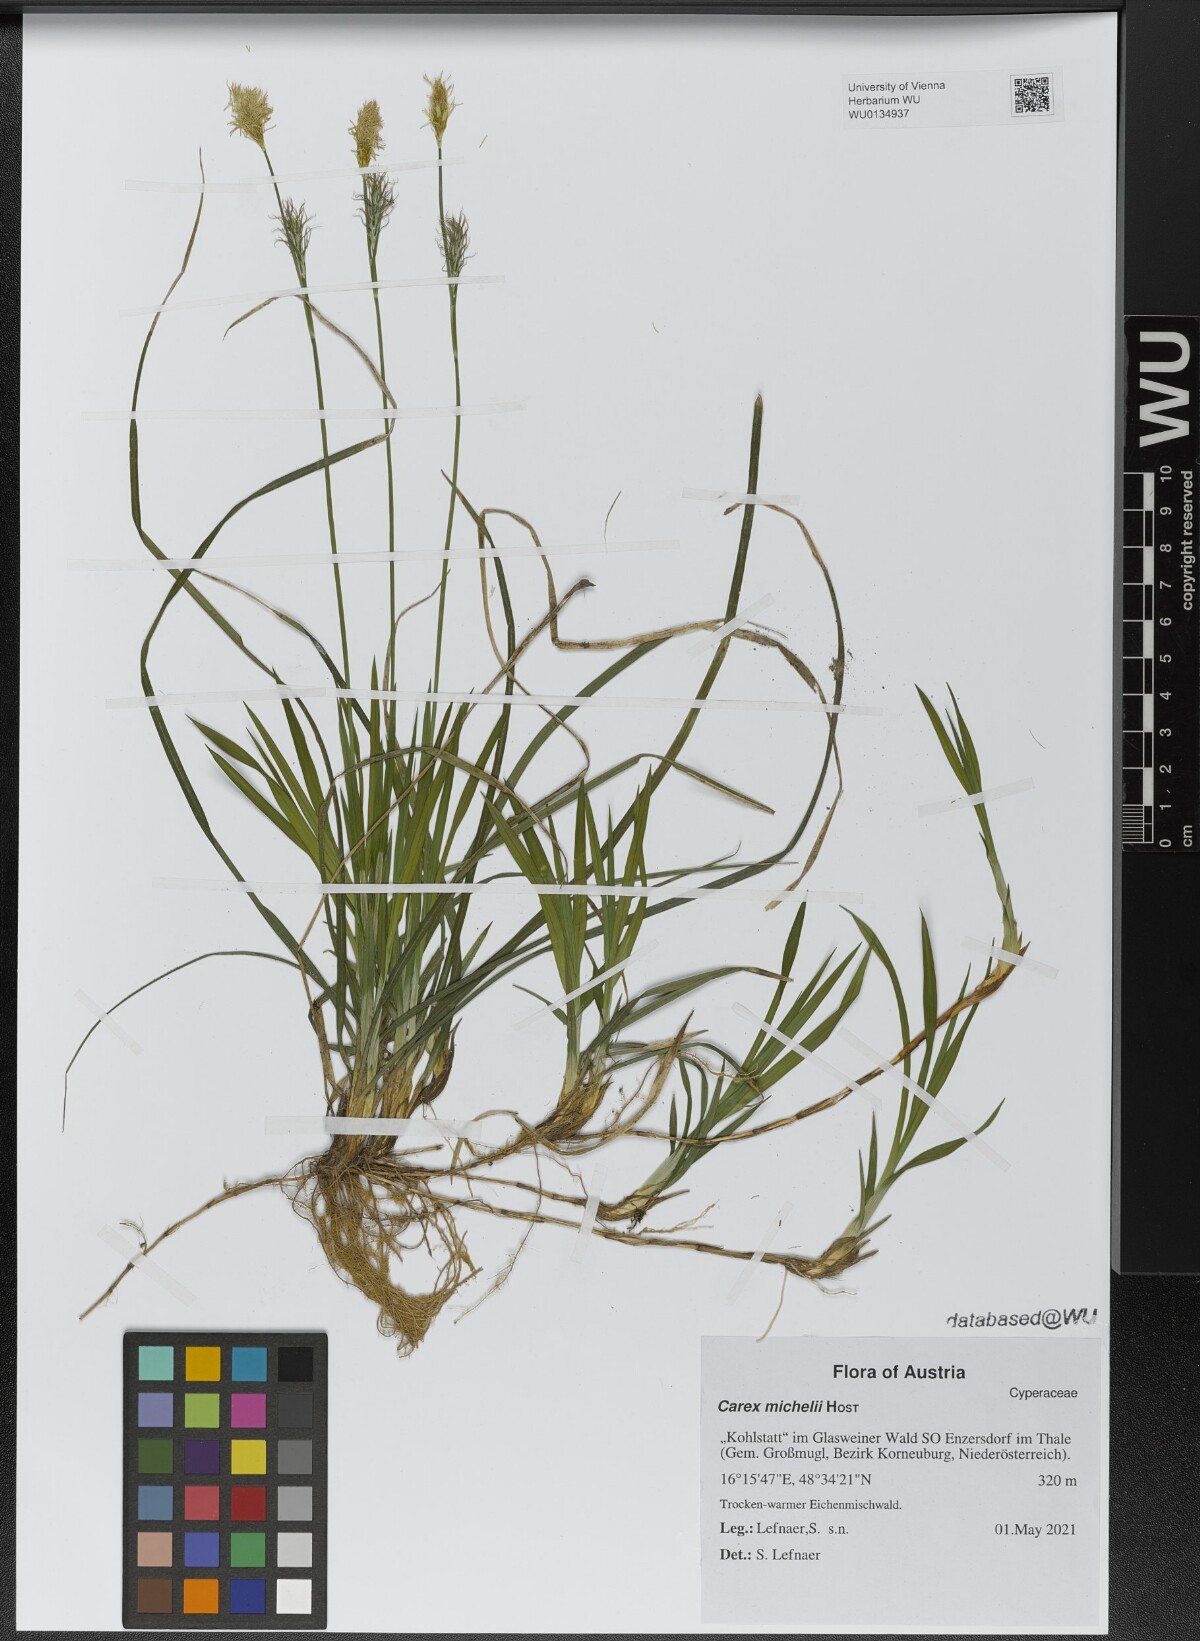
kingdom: Plantae
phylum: Tracheophyta
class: Liliopsida
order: Poales
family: Cyperaceae
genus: Carex
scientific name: Carex michelii
